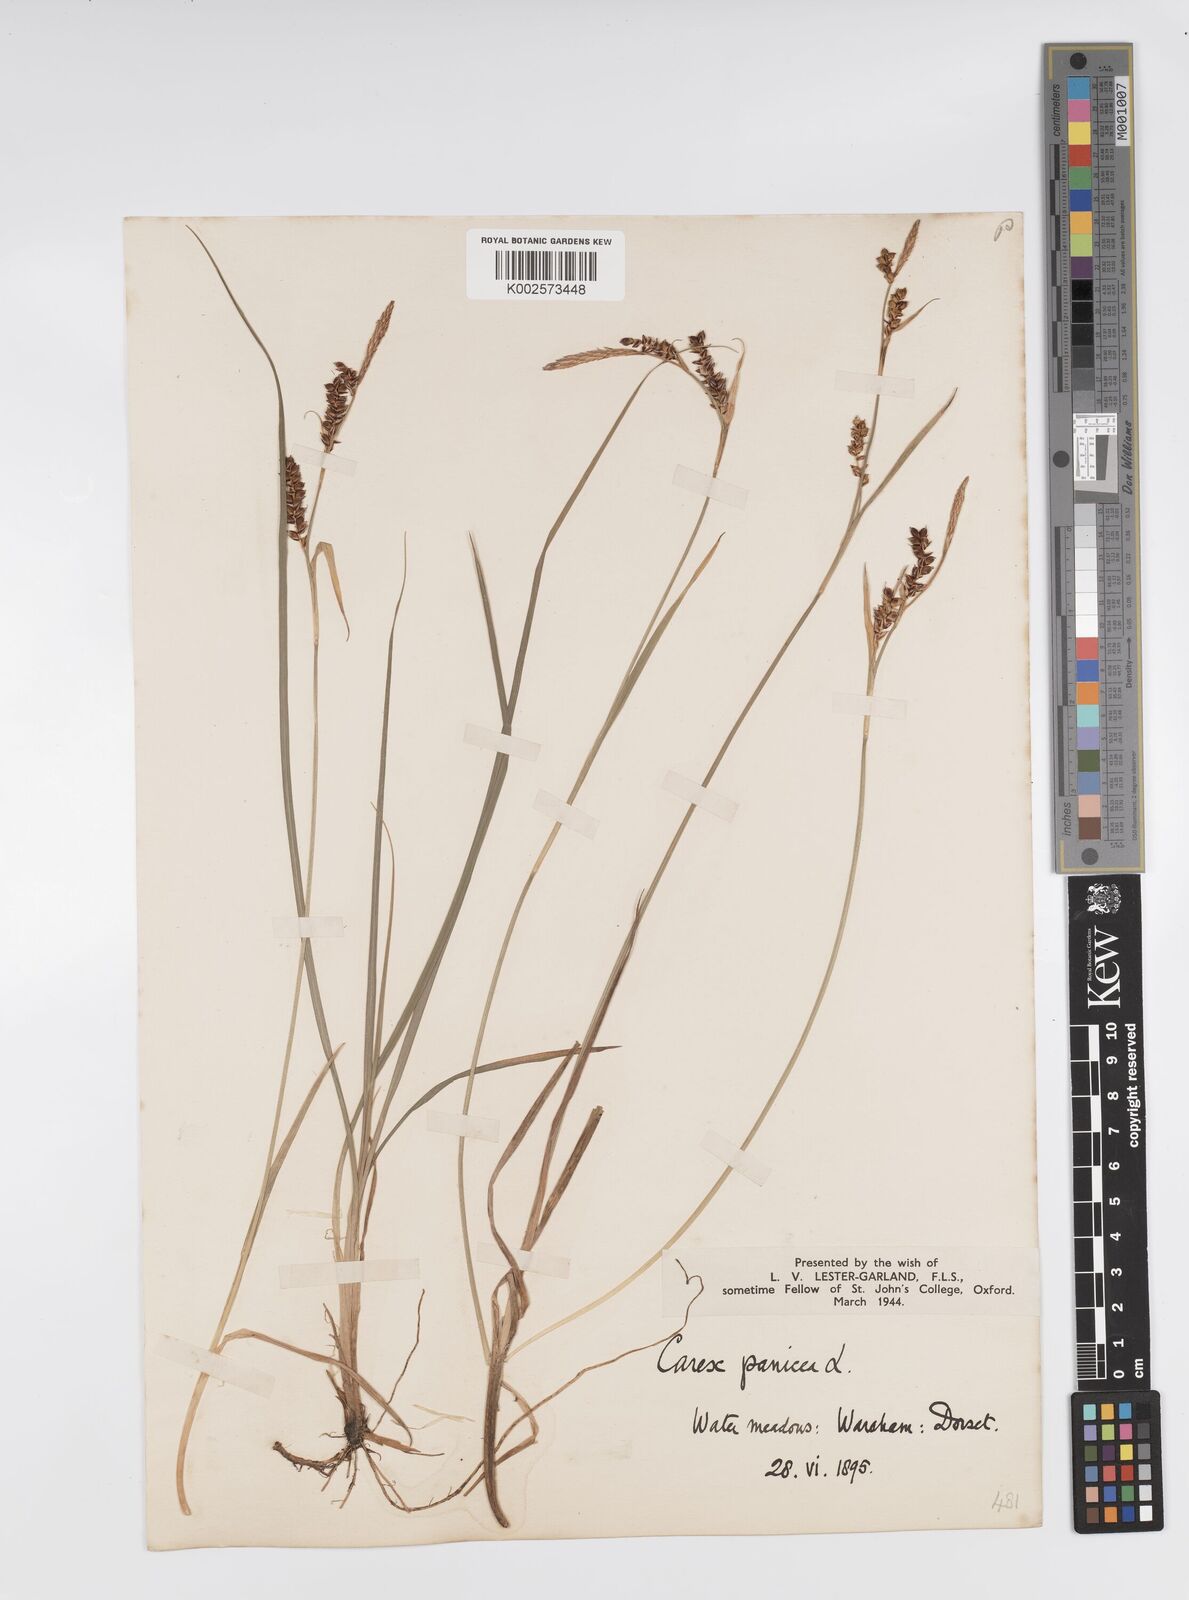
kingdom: Plantae
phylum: Tracheophyta
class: Liliopsida
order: Poales
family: Cyperaceae
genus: Carex
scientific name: Carex panicea
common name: Carnation sedge
